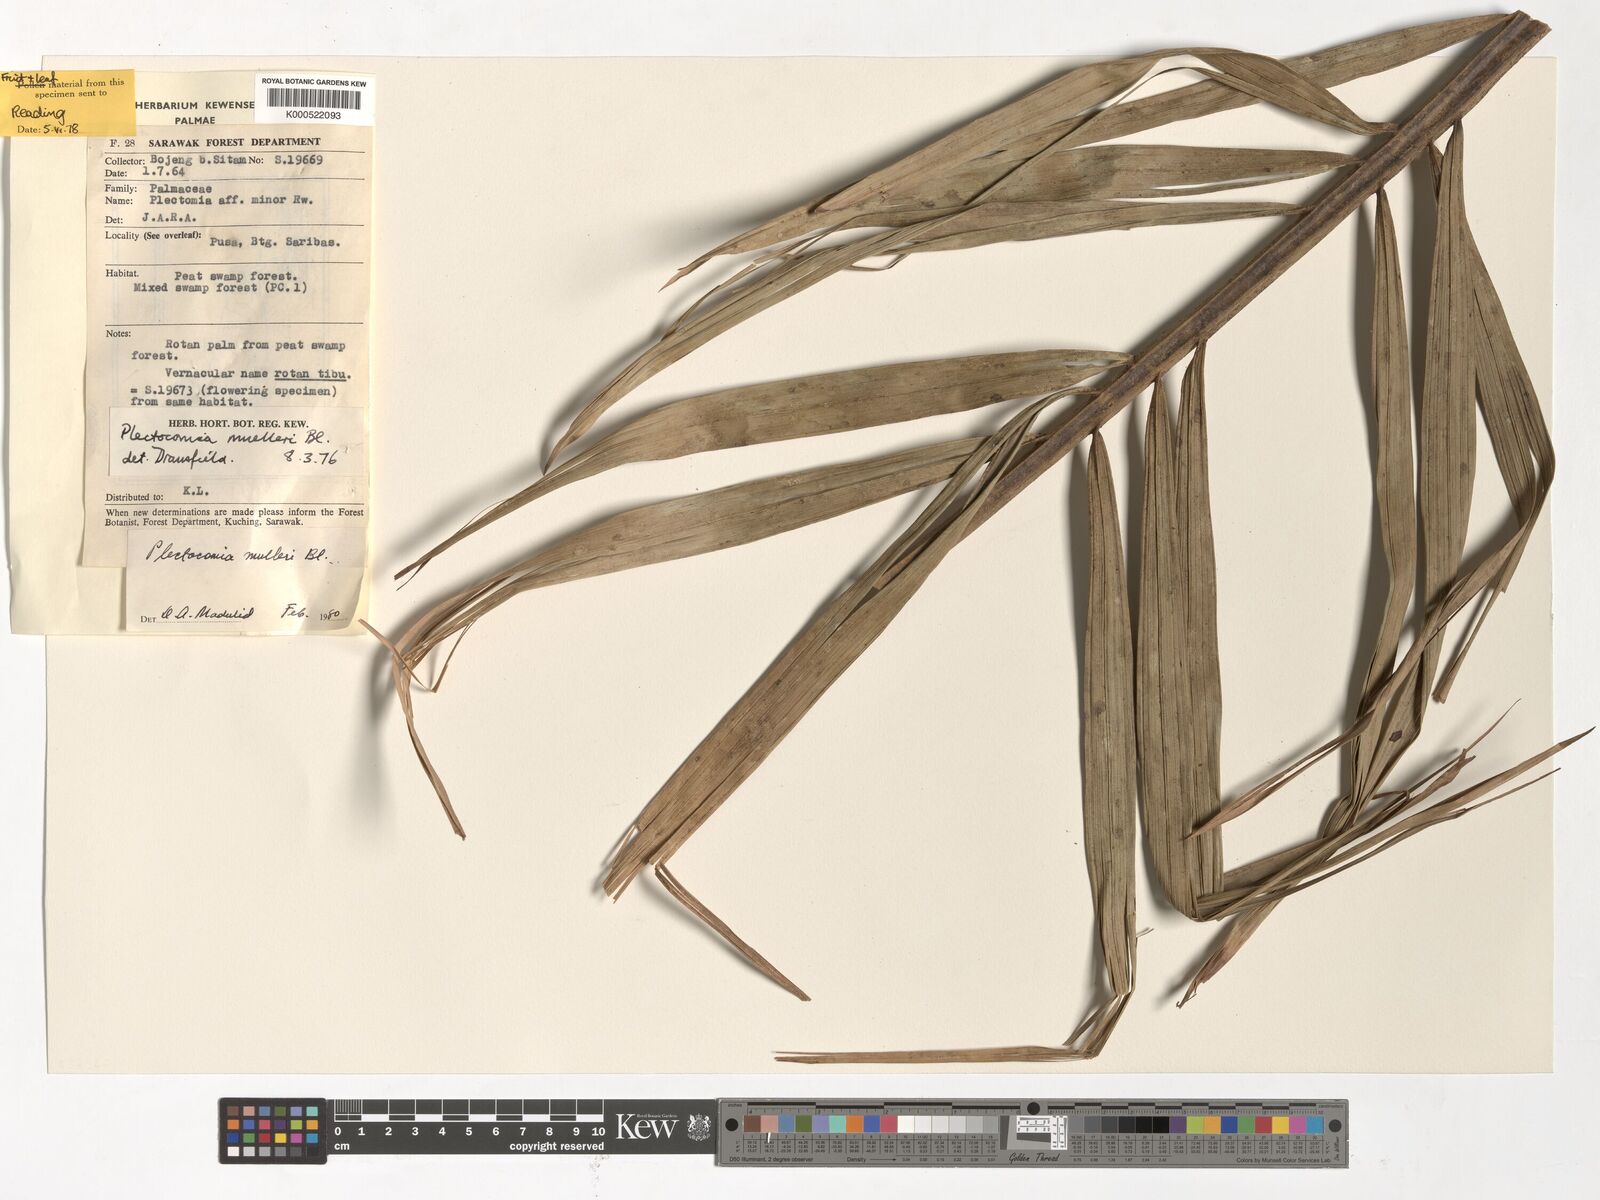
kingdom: Plantae
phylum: Tracheophyta
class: Liliopsida
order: Arecales
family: Arecaceae
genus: Plectocomia
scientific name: Plectocomia mulleri
